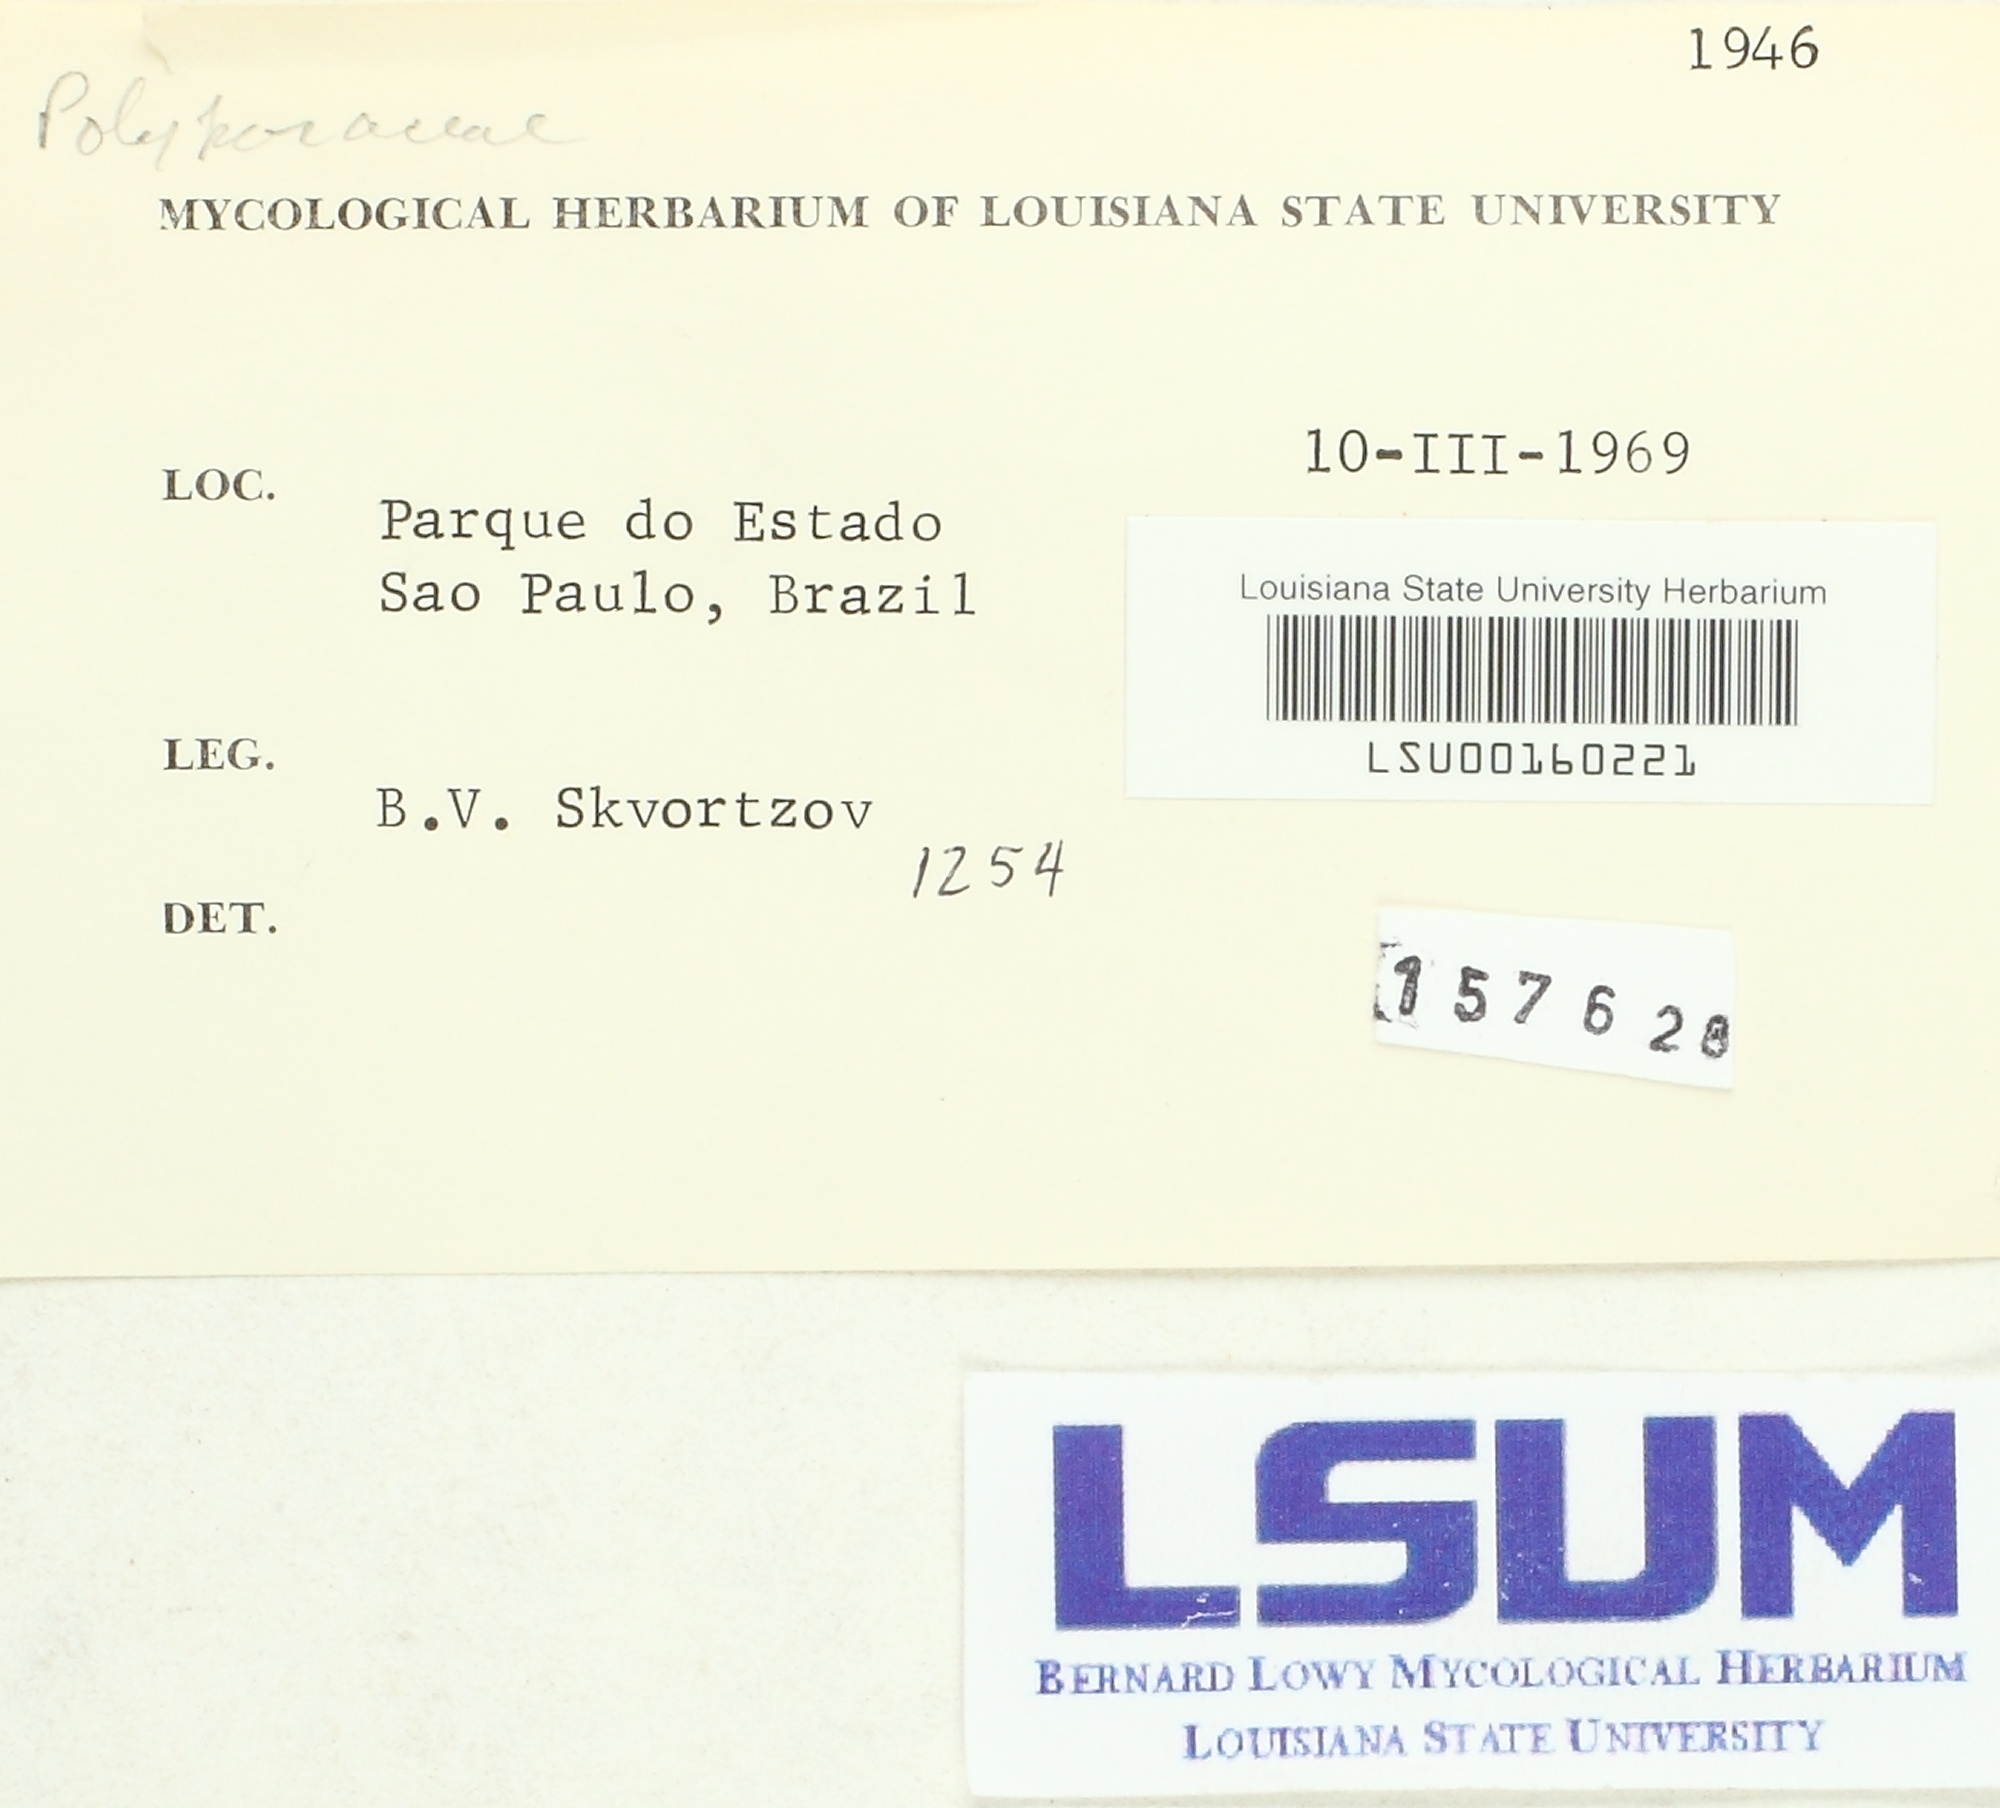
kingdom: Fungi
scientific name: Fungi
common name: Fungi
